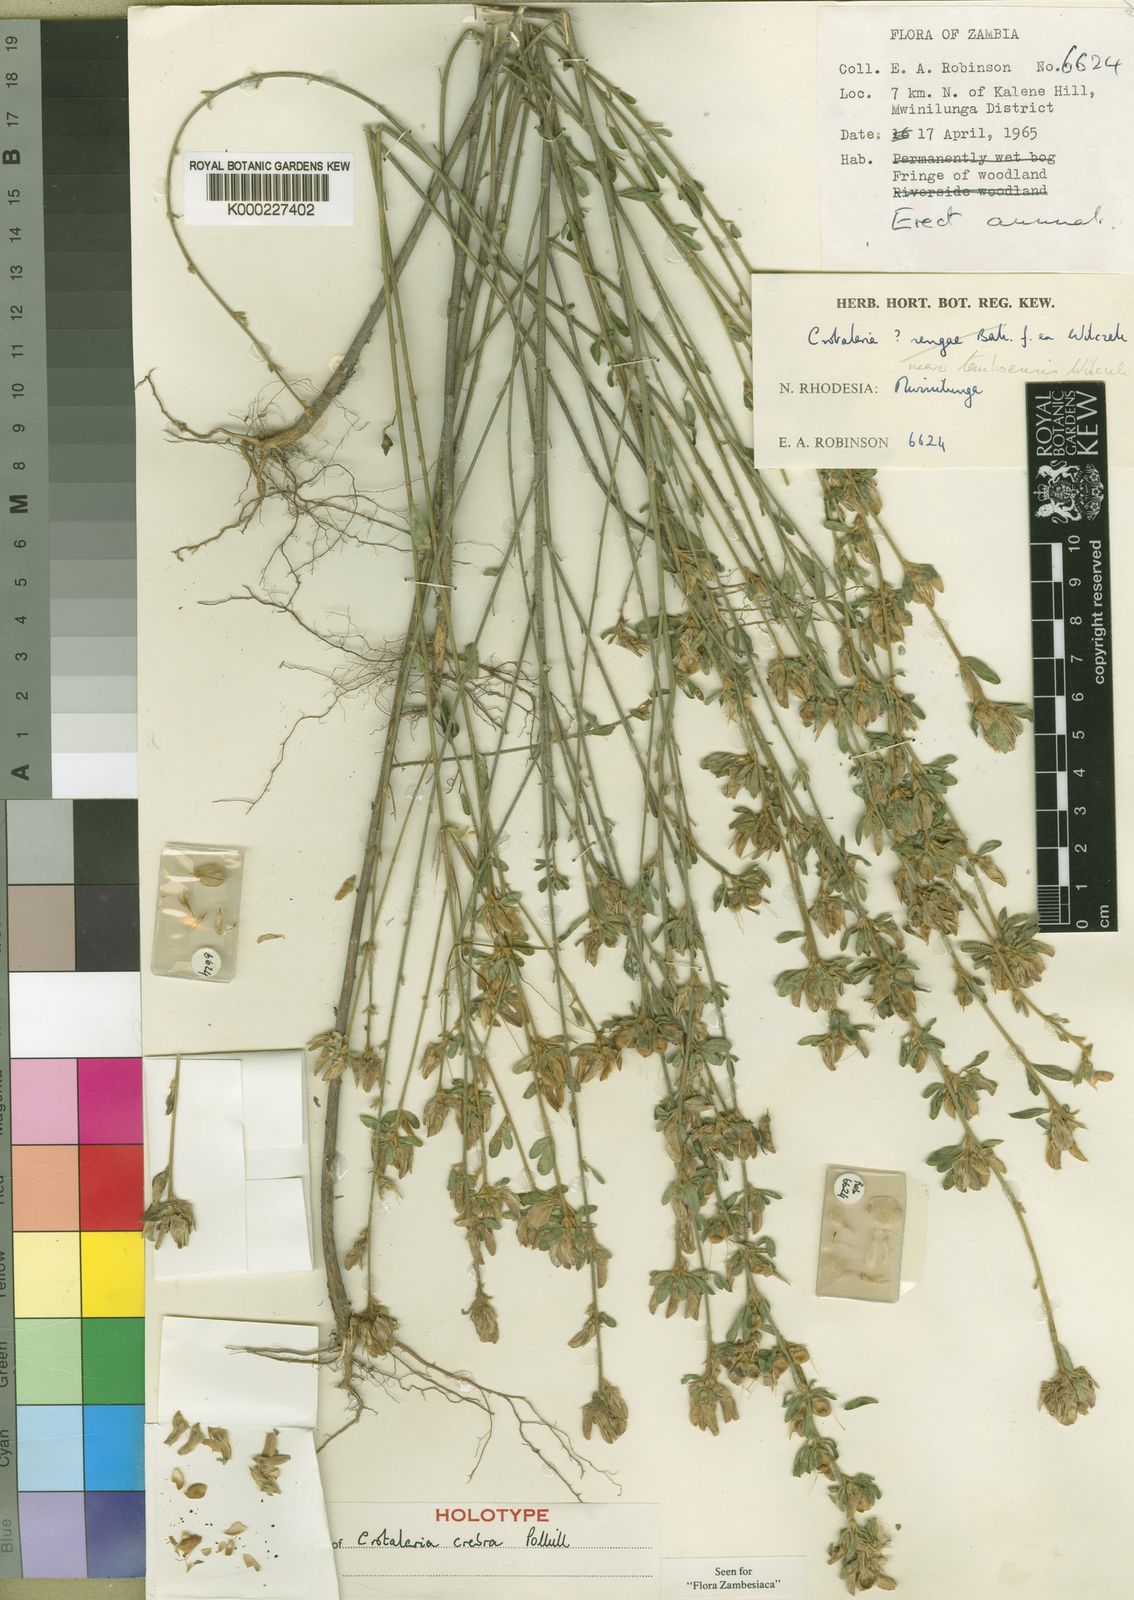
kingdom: Plantae
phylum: Tracheophyta
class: Magnoliopsida
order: Fabales
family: Fabaceae
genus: Crotalaria
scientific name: Crotalaria crebra
